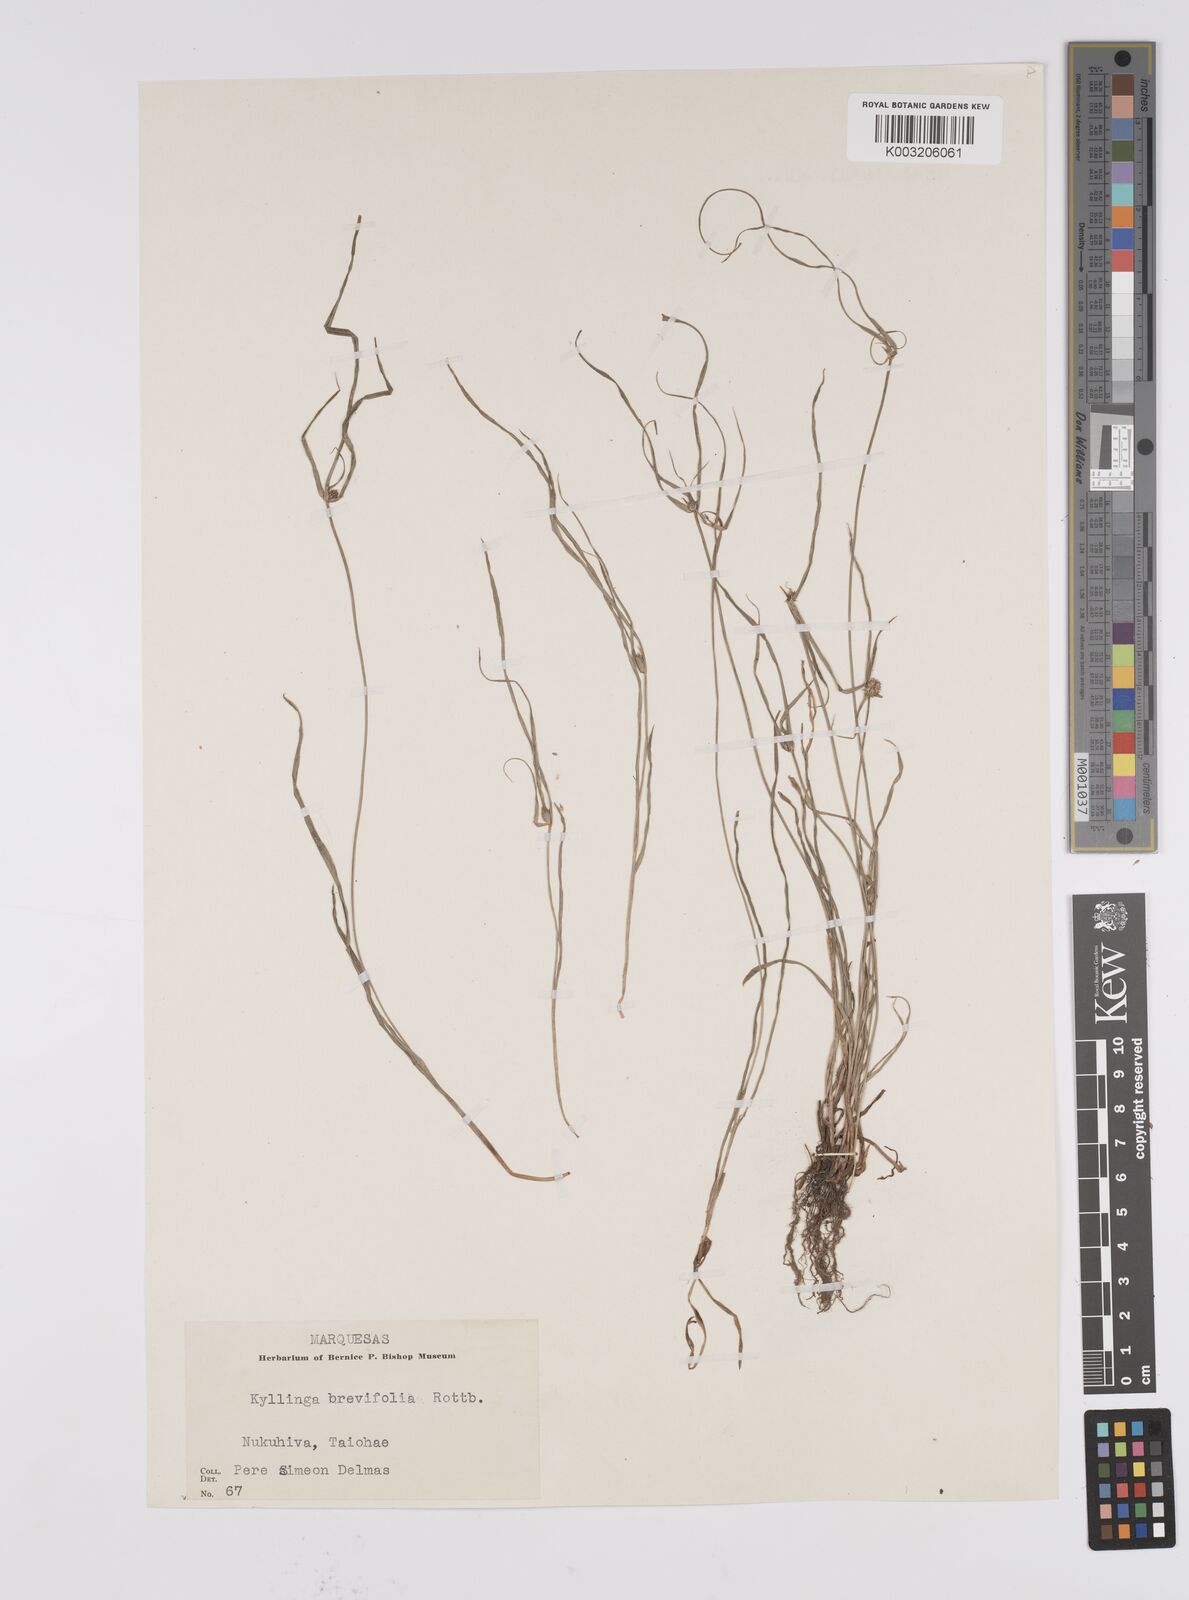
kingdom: Plantae
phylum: Tracheophyta
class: Liliopsida
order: Poales
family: Cyperaceae
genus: Cyperus
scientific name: Cyperus brevifolius
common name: Globe kyllinga
